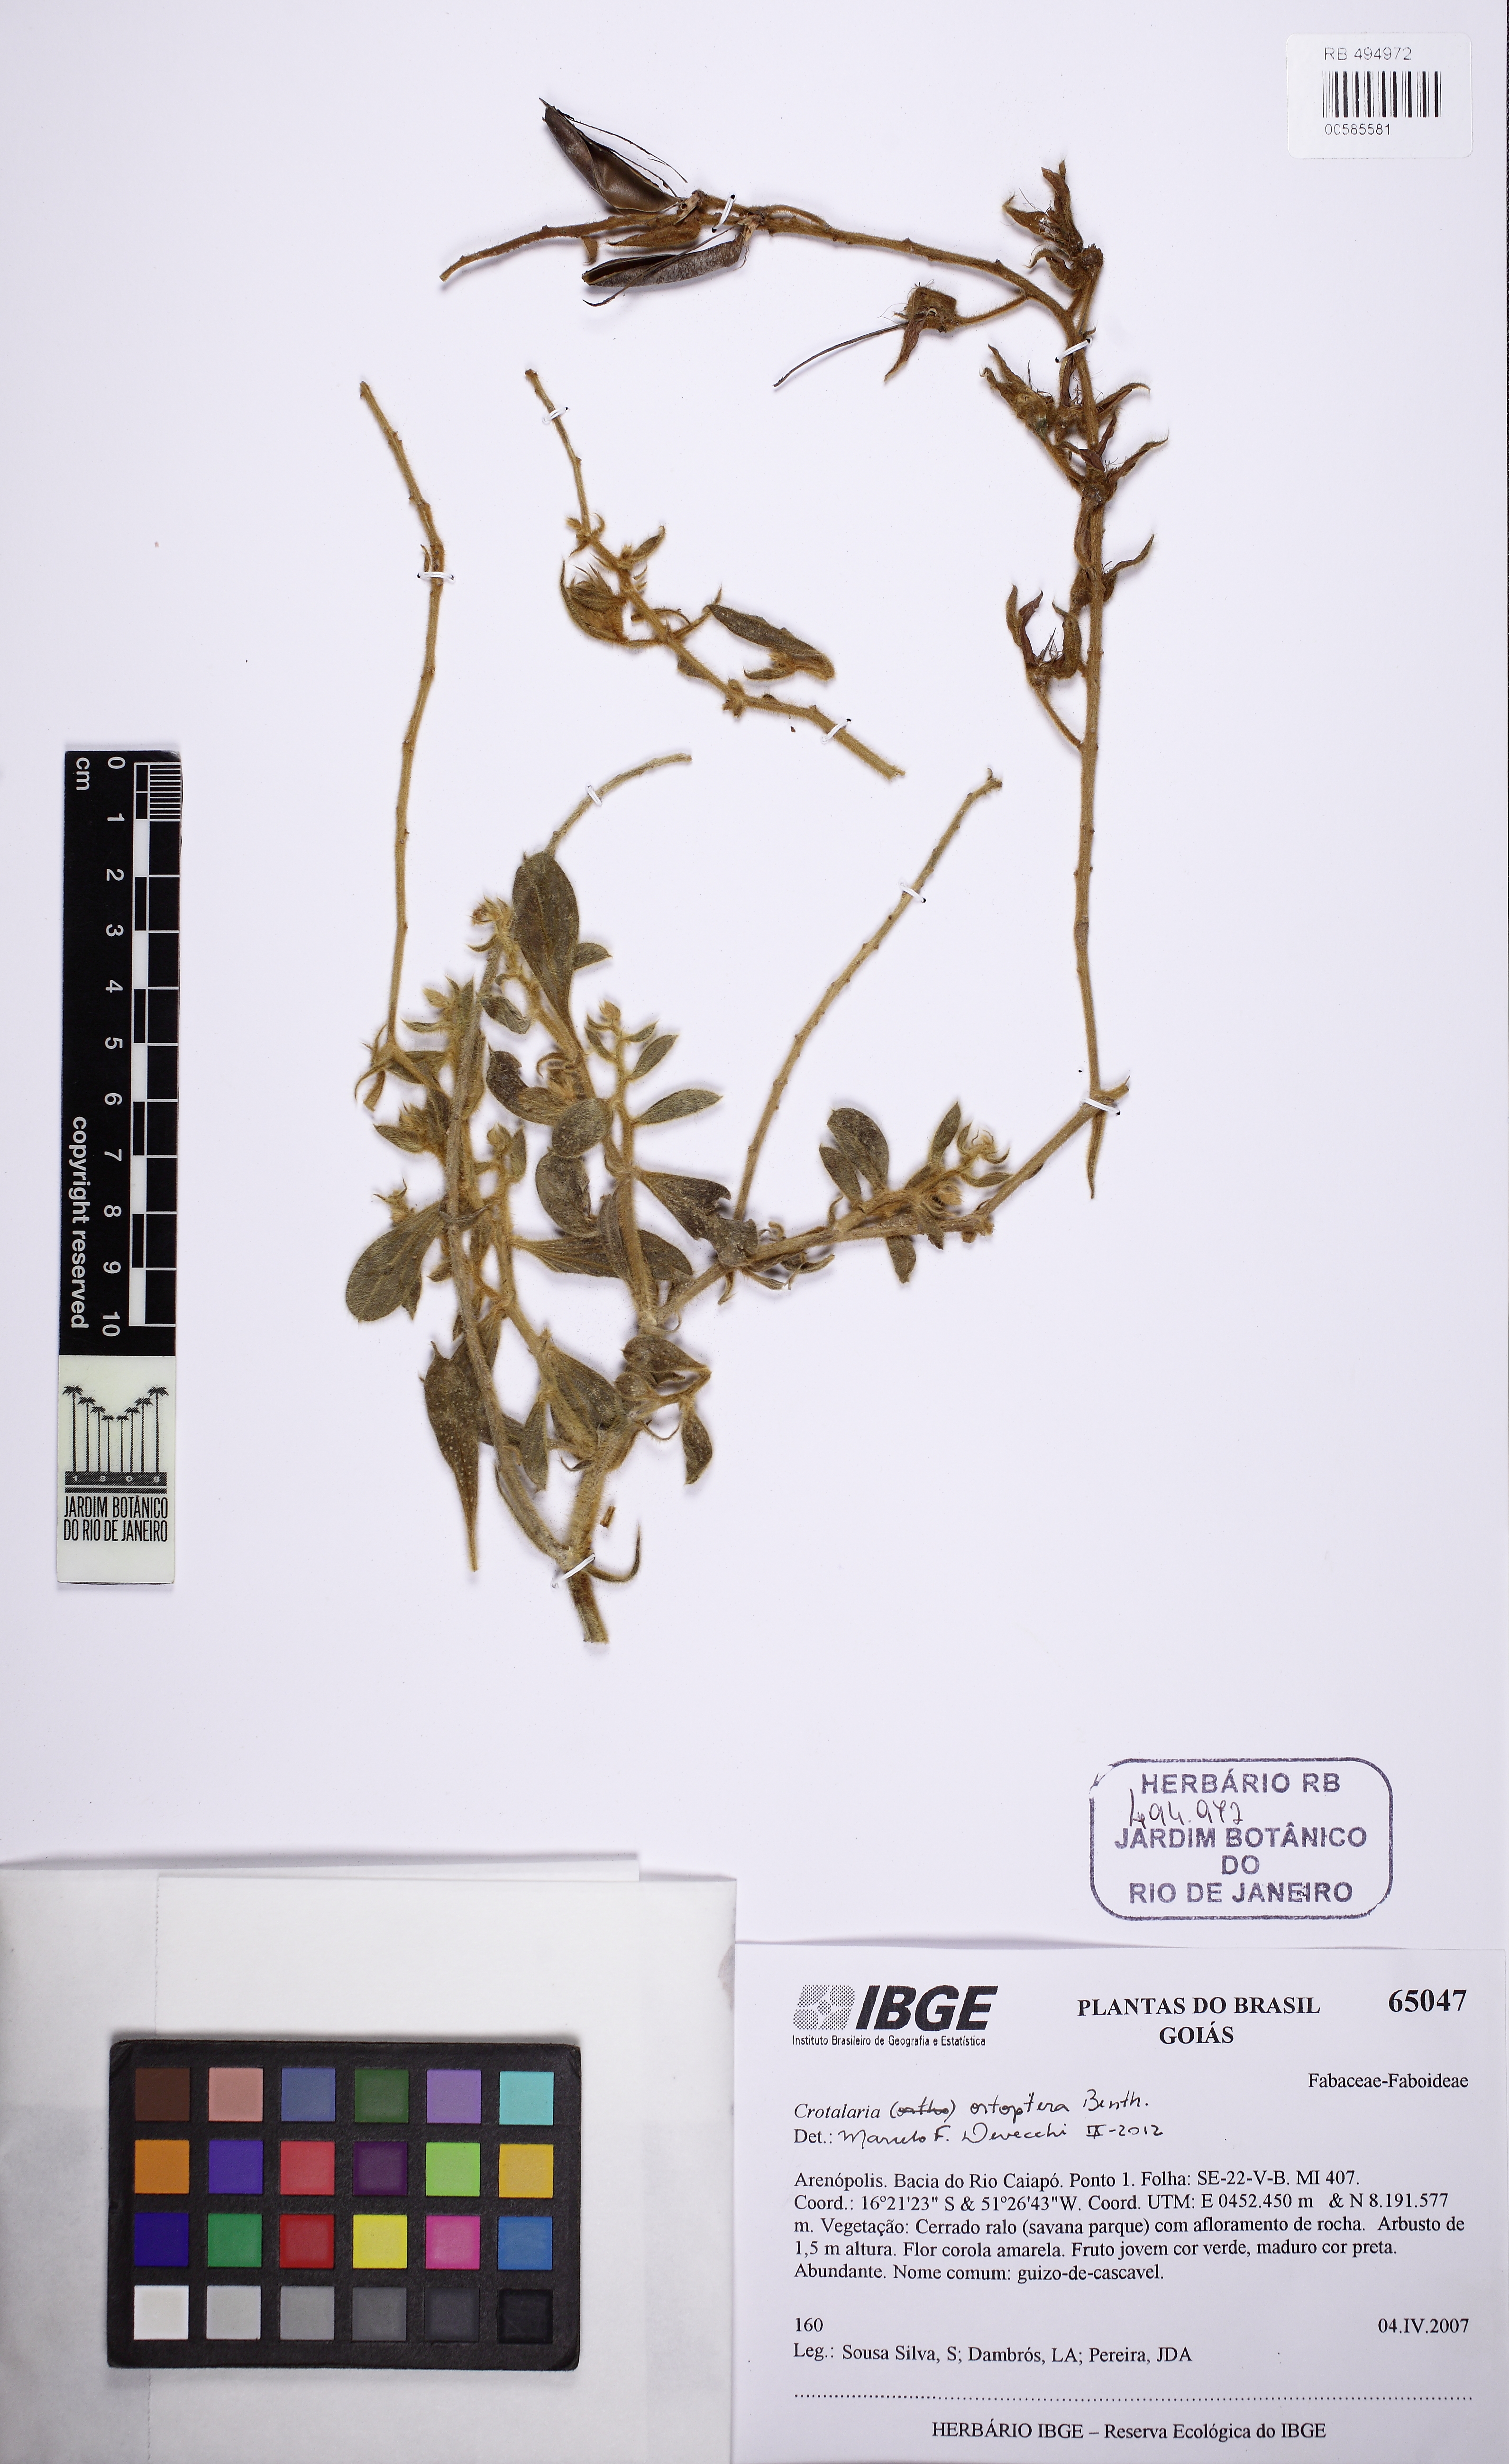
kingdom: Plantae
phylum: Tracheophyta
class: Magnoliopsida
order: Fabales
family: Fabaceae
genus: Crotalaria
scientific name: Crotalaria otoptera
